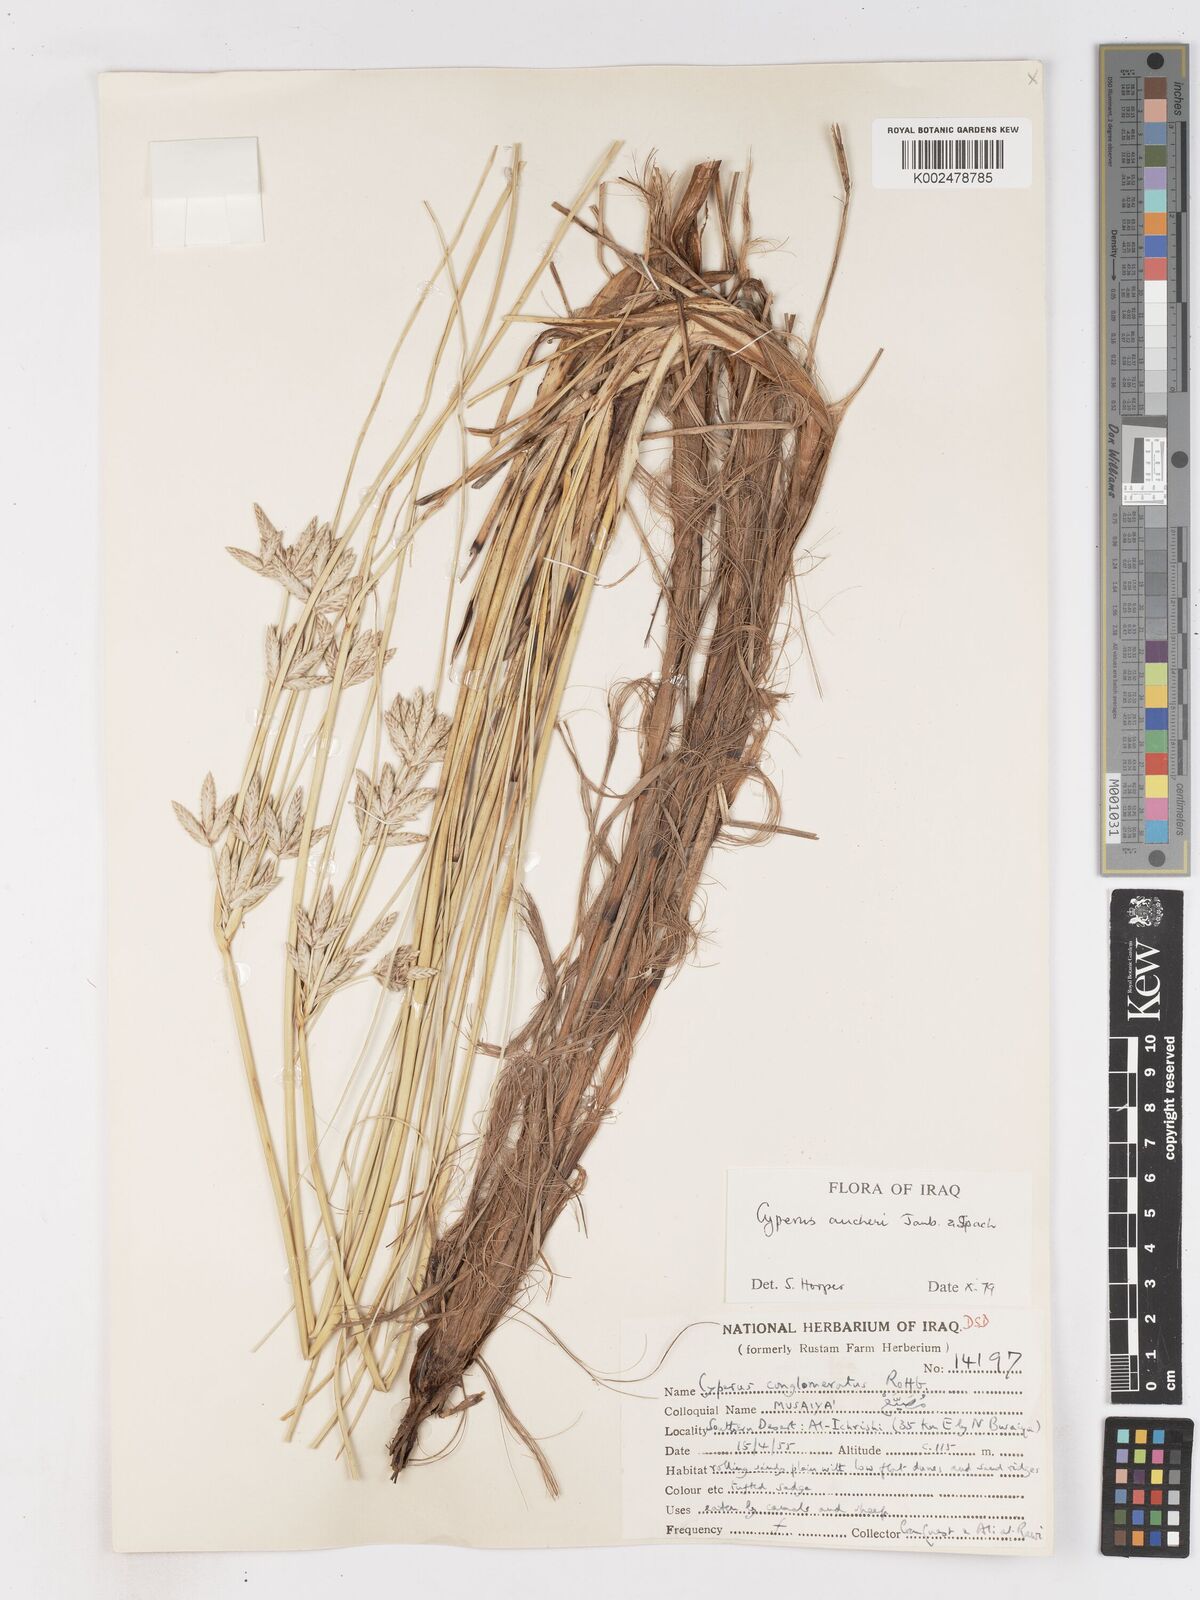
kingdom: Plantae
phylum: Tracheophyta
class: Liliopsida
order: Poales
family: Cyperaceae
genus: Cyperus
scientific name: Cyperus aucheri
